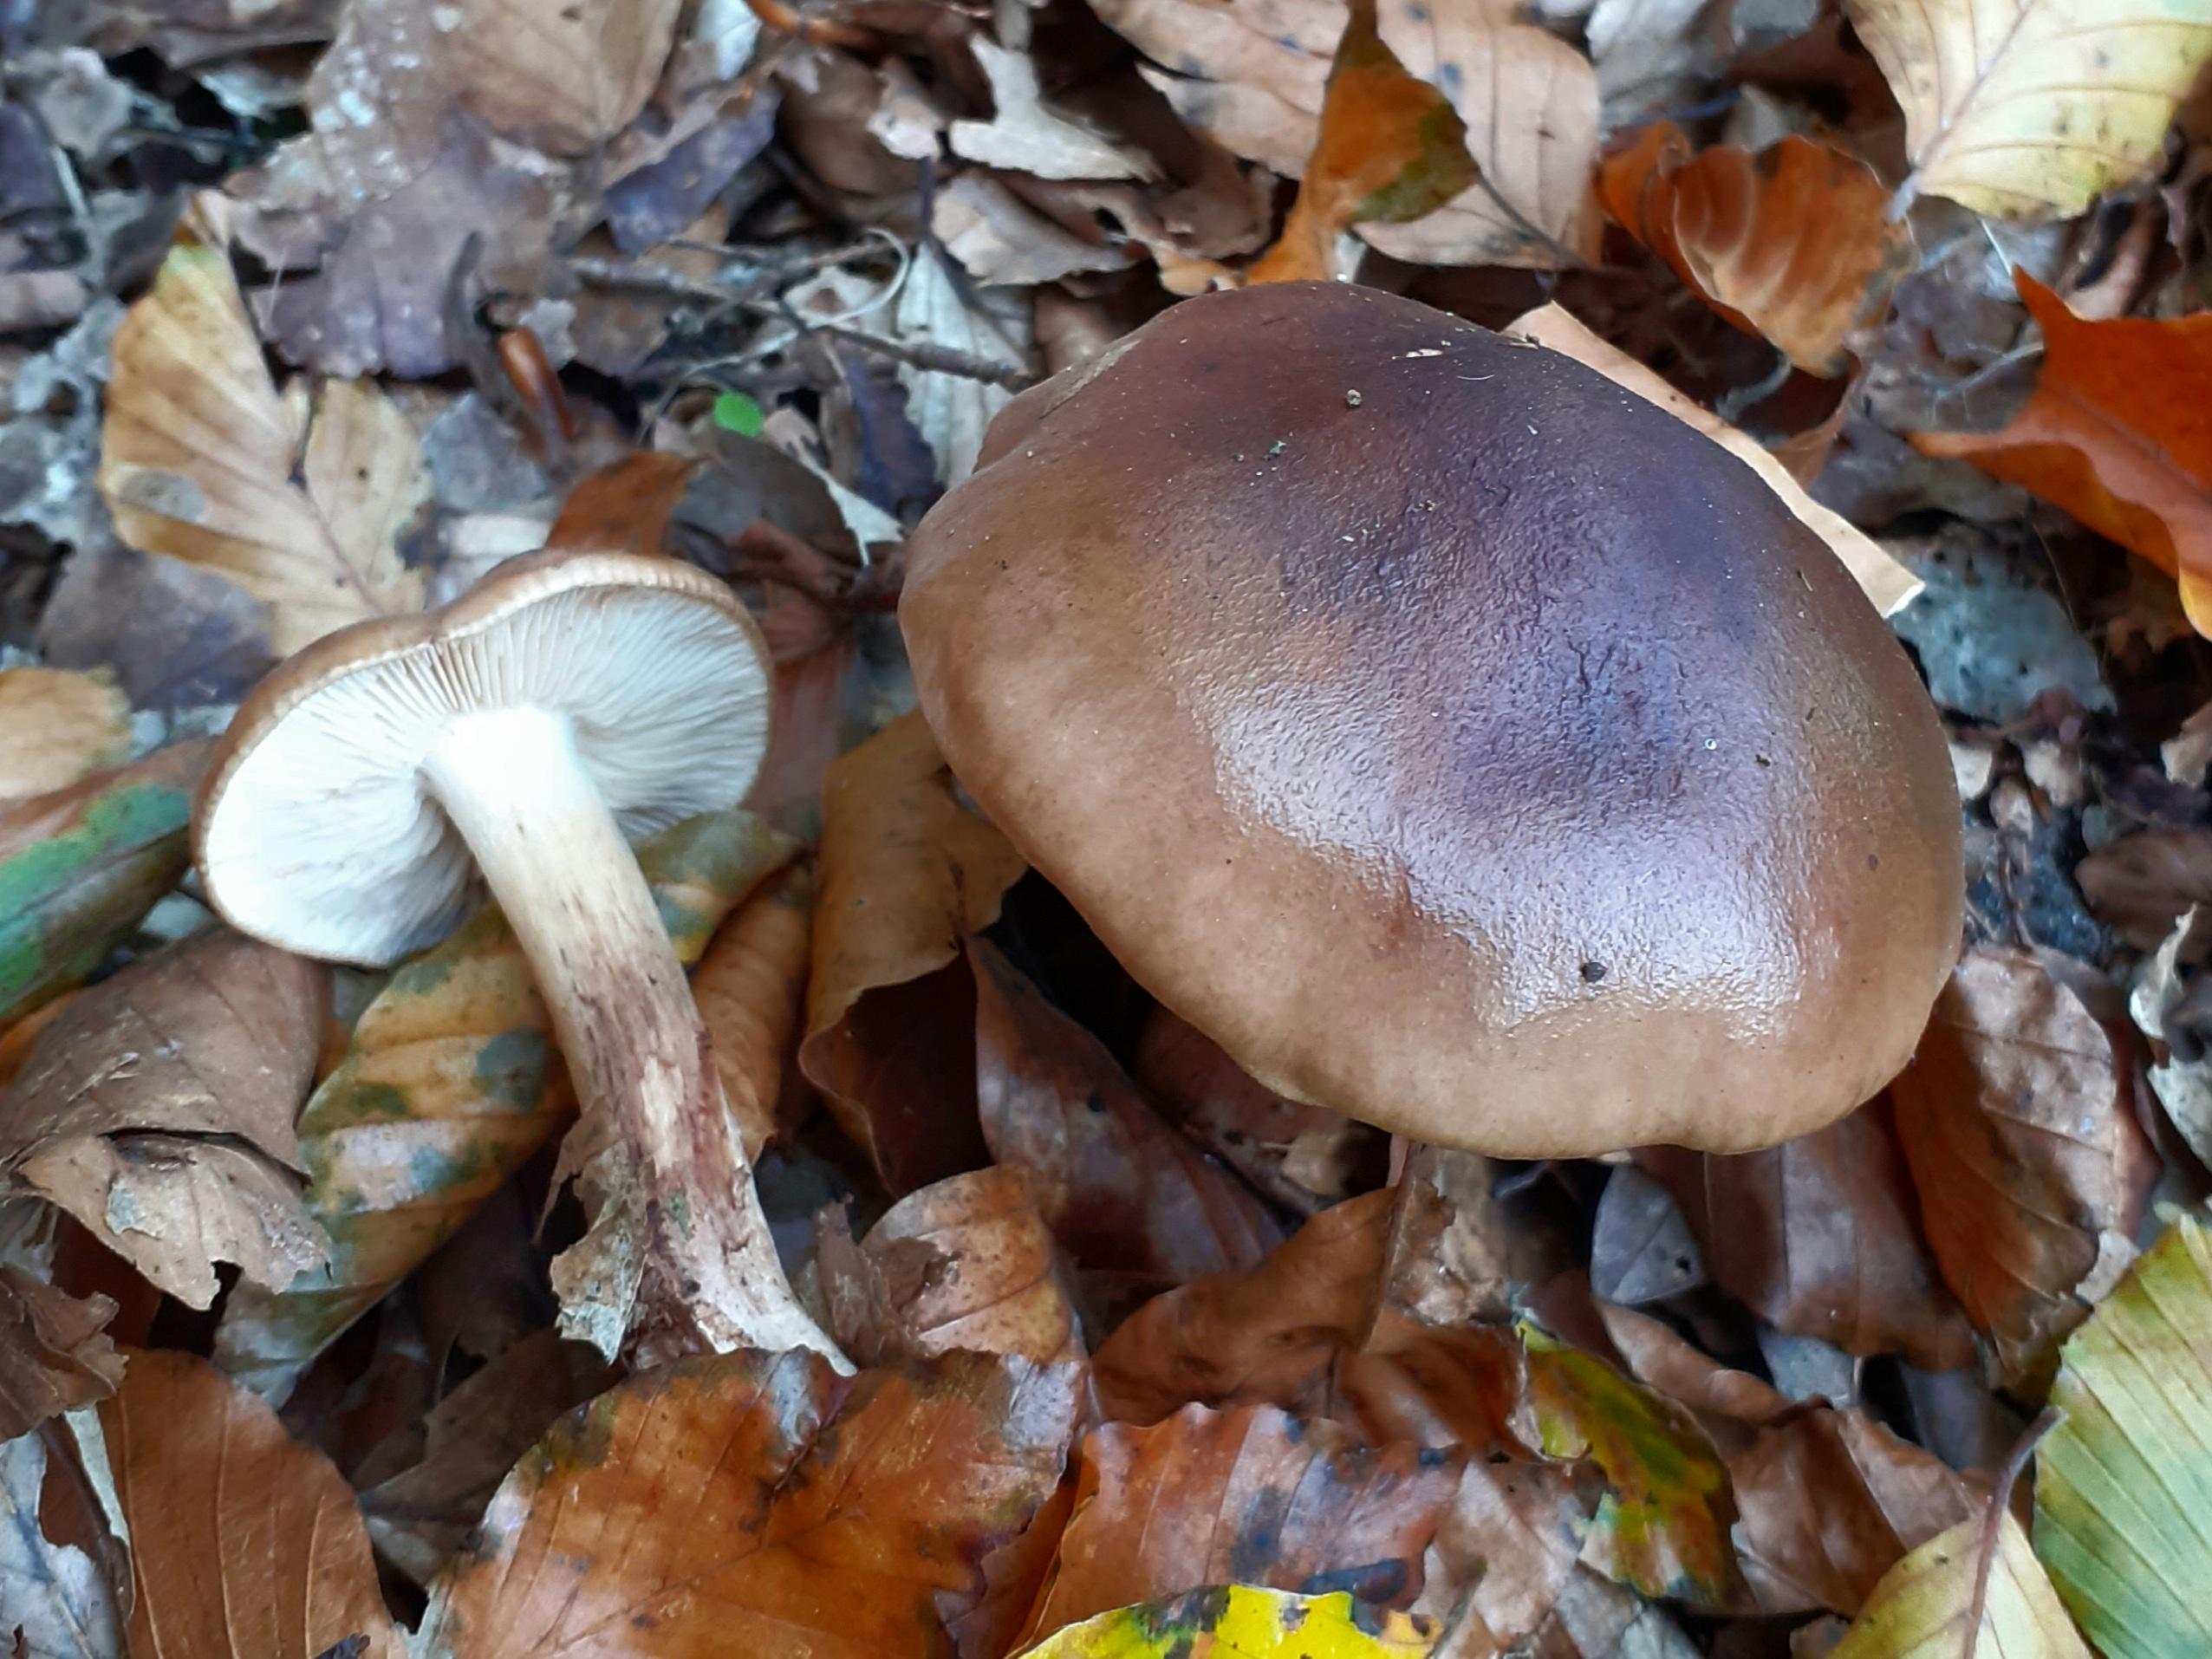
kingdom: Fungi
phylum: Basidiomycota
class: Agaricomycetes
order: Agaricales
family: Tricholomataceae
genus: Tricholoma
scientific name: Tricholoma ustale
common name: sveden ridderhat
